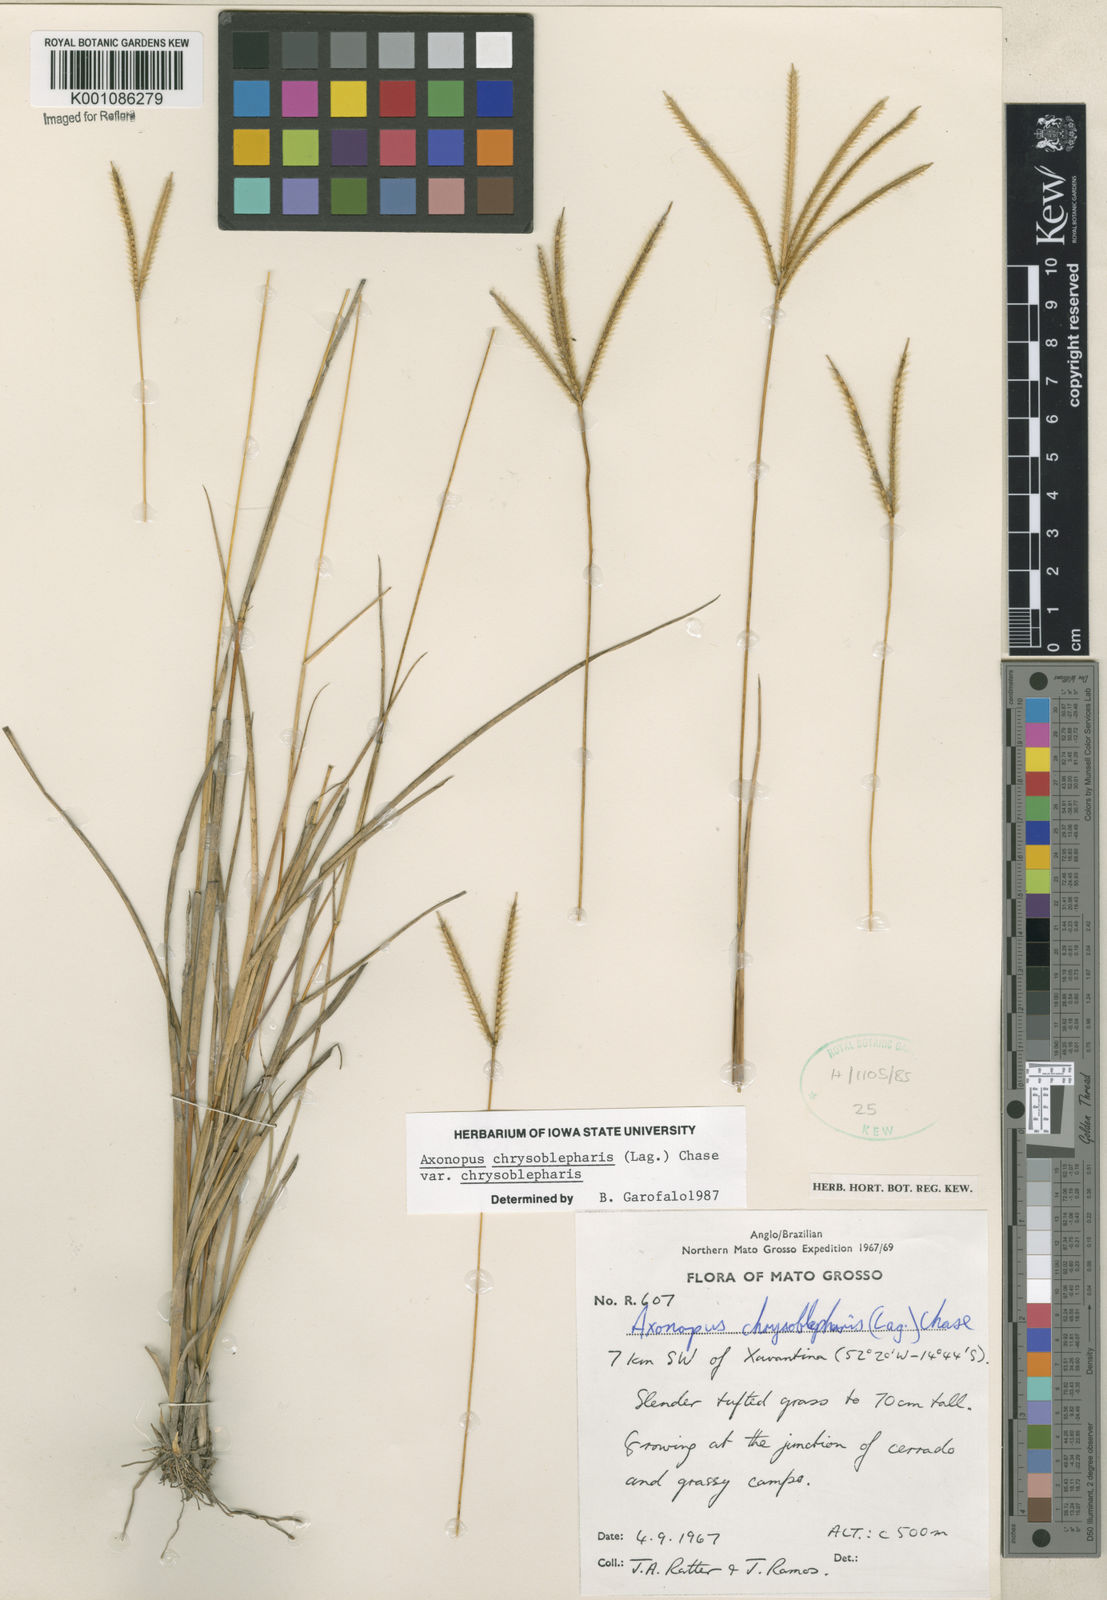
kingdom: Plantae
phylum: Tracheophyta
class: Liliopsida
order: Poales
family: Poaceae
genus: Axonopus
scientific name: Axonopus chrysoblepharis
